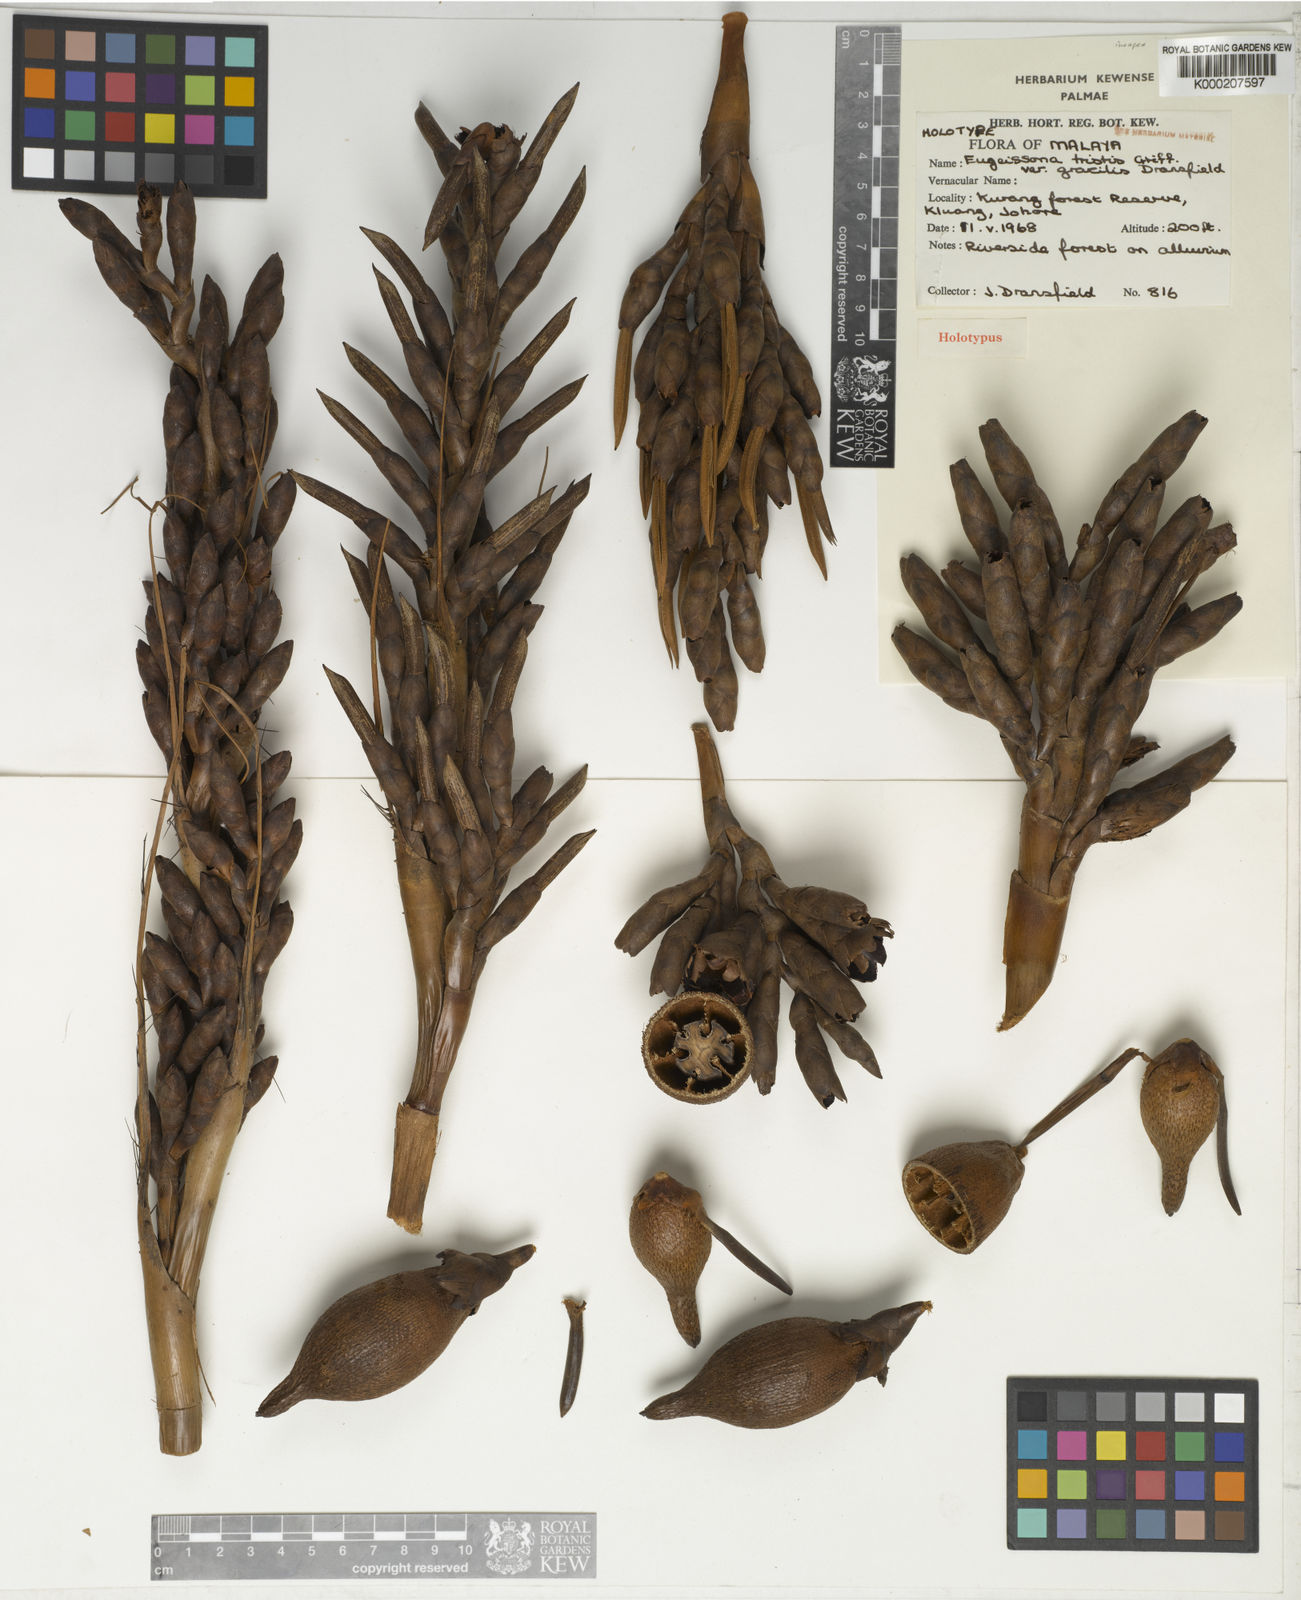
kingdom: Plantae
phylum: Tracheophyta
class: Liliopsida
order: Arecales
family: Arecaceae
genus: Eugeissona
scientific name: Eugeissona tristis
